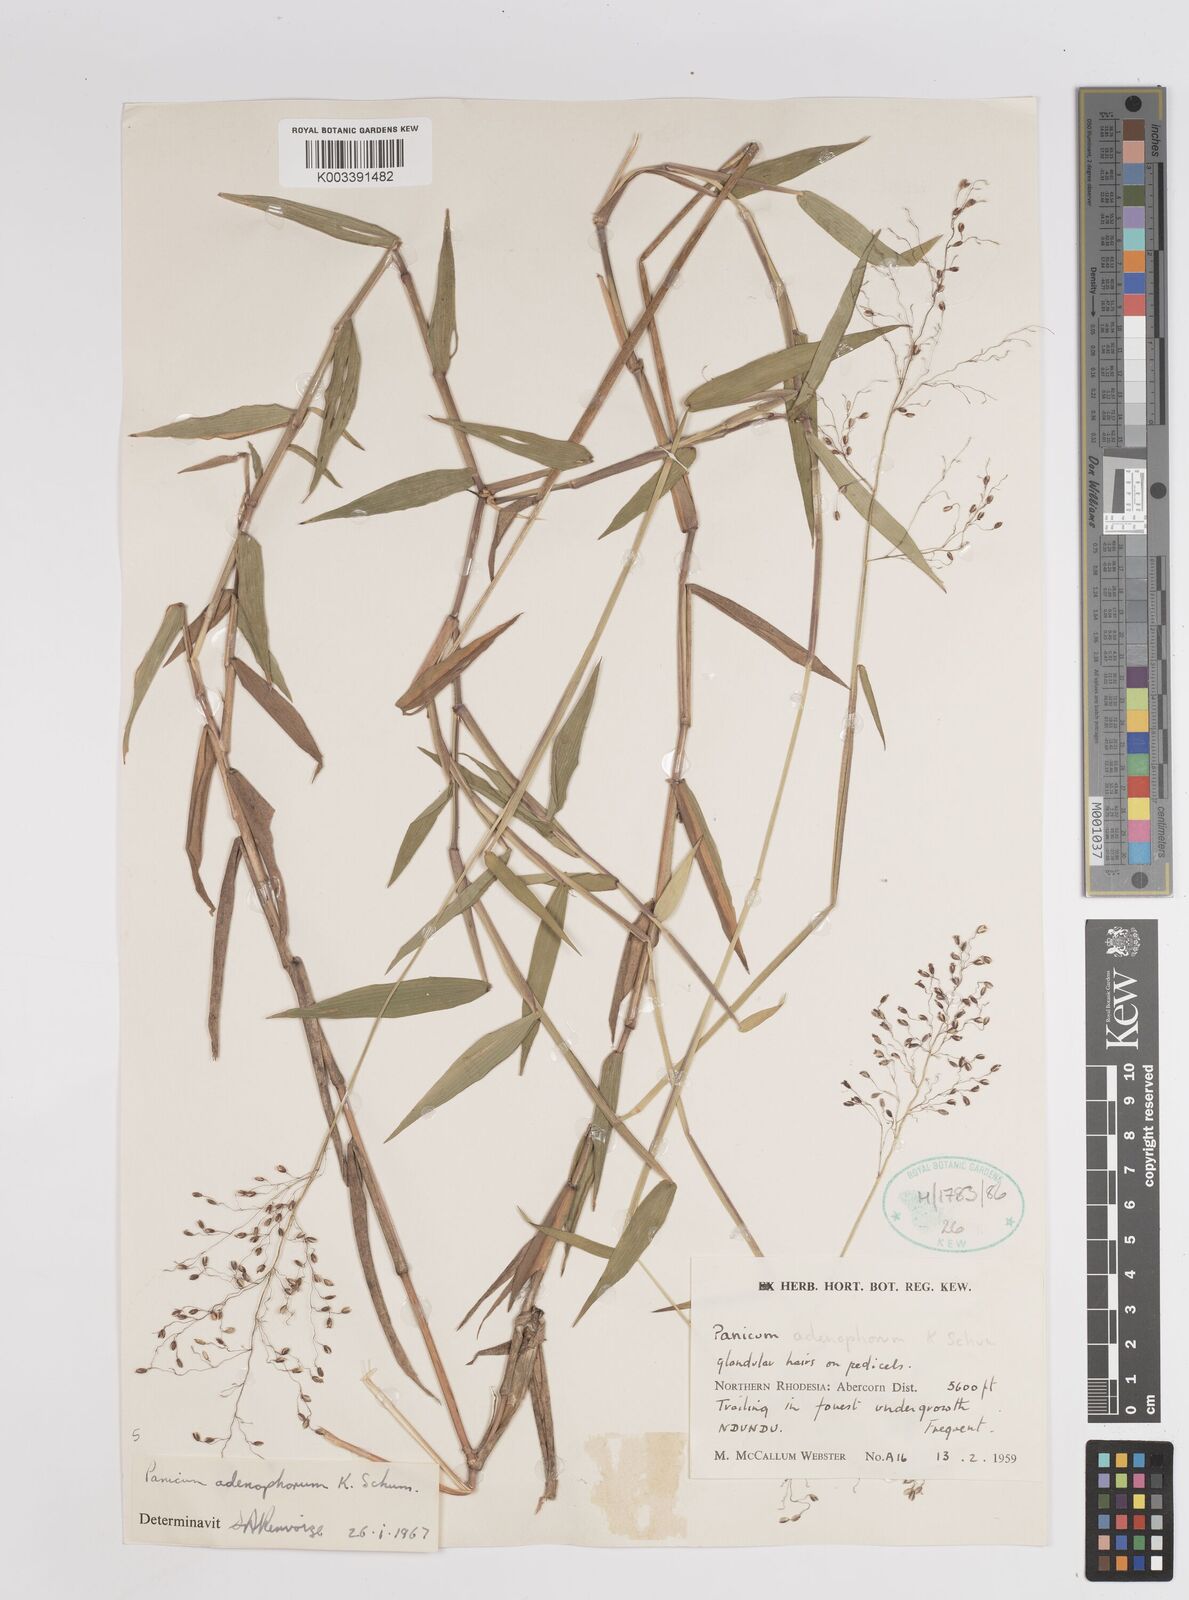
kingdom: Plantae
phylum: Tracheophyta
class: Liliopsida
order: Poales
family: Poaceae
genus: Adenochloa
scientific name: Adenochloa adenophora
